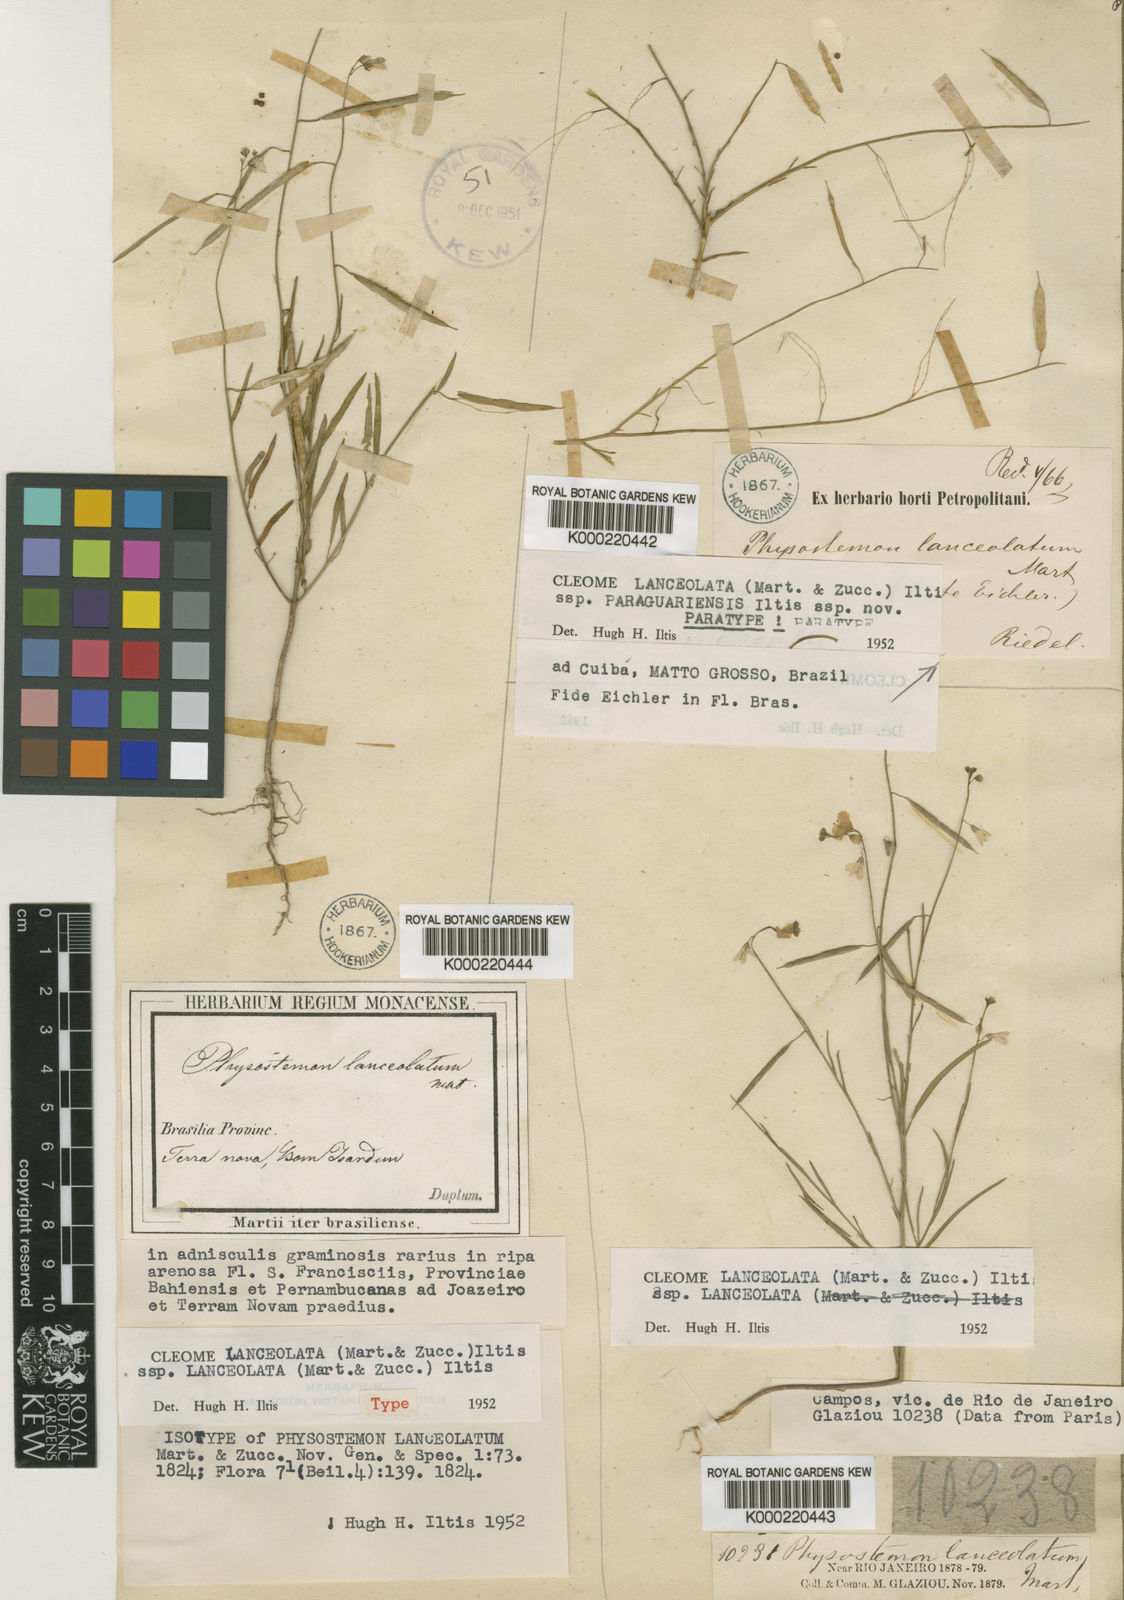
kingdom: Plantae
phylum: Tracheophyta
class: Magnoliopsida
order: Brassicales
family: Cleomaceae
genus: Physostemon
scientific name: Physostemon lanceolatus
